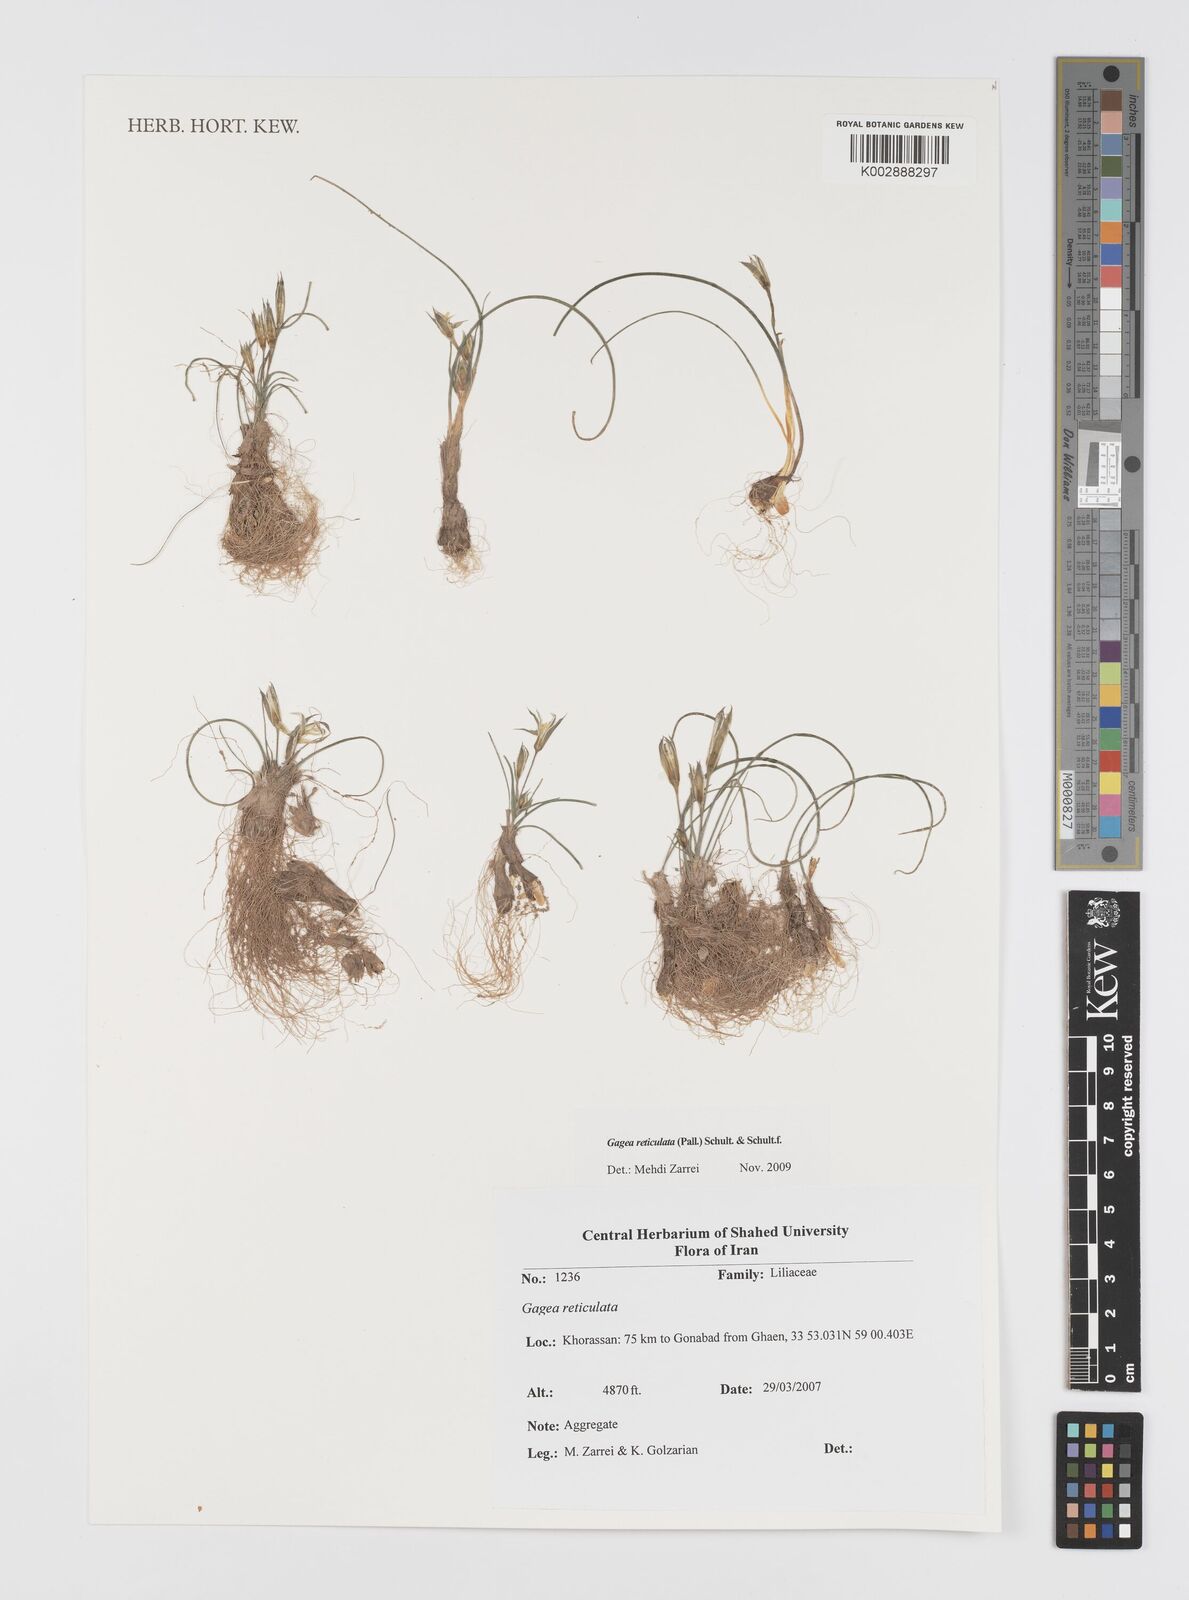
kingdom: Plantae
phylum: Tracheophyta
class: Liliopsida
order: Liliales
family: Liliaceae
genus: Gagea
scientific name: Gagea reticulata
